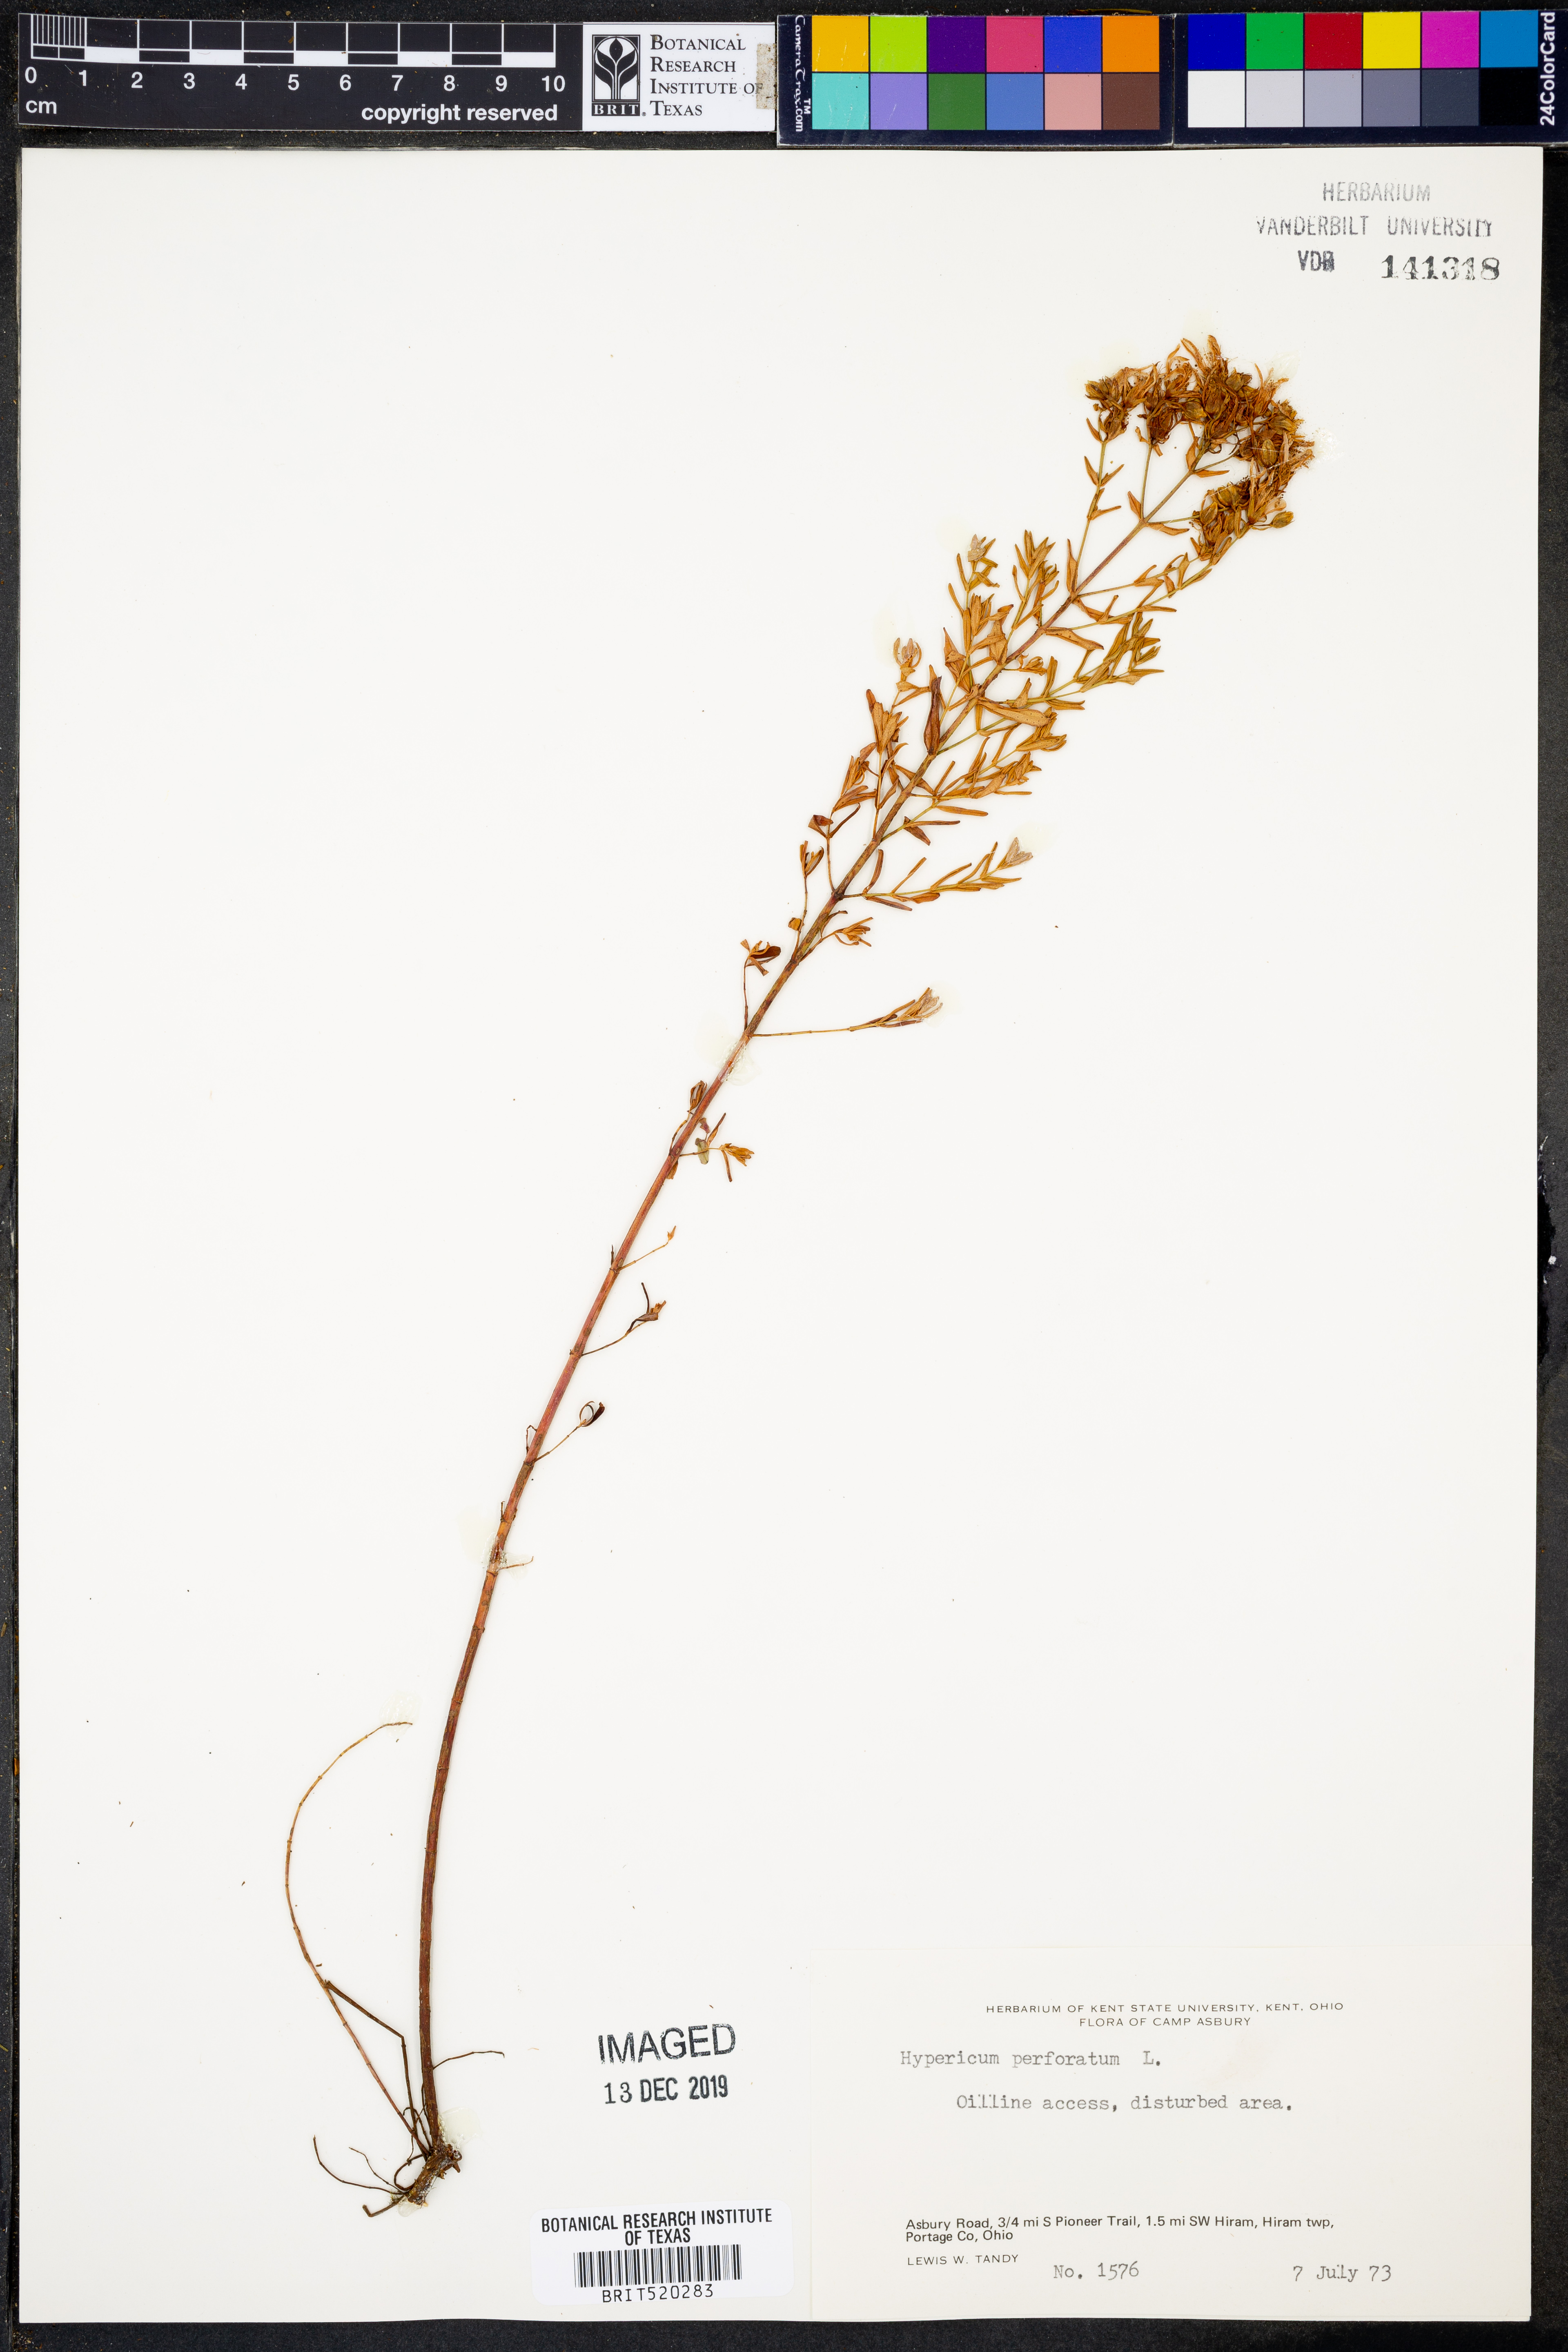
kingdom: Plantae
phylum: Tracheophyta
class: Magnoliopsida
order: Malpighiales
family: Hypericaceae
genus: Hypericum
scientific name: Hypericum perforatum
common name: Common st. johnswort
